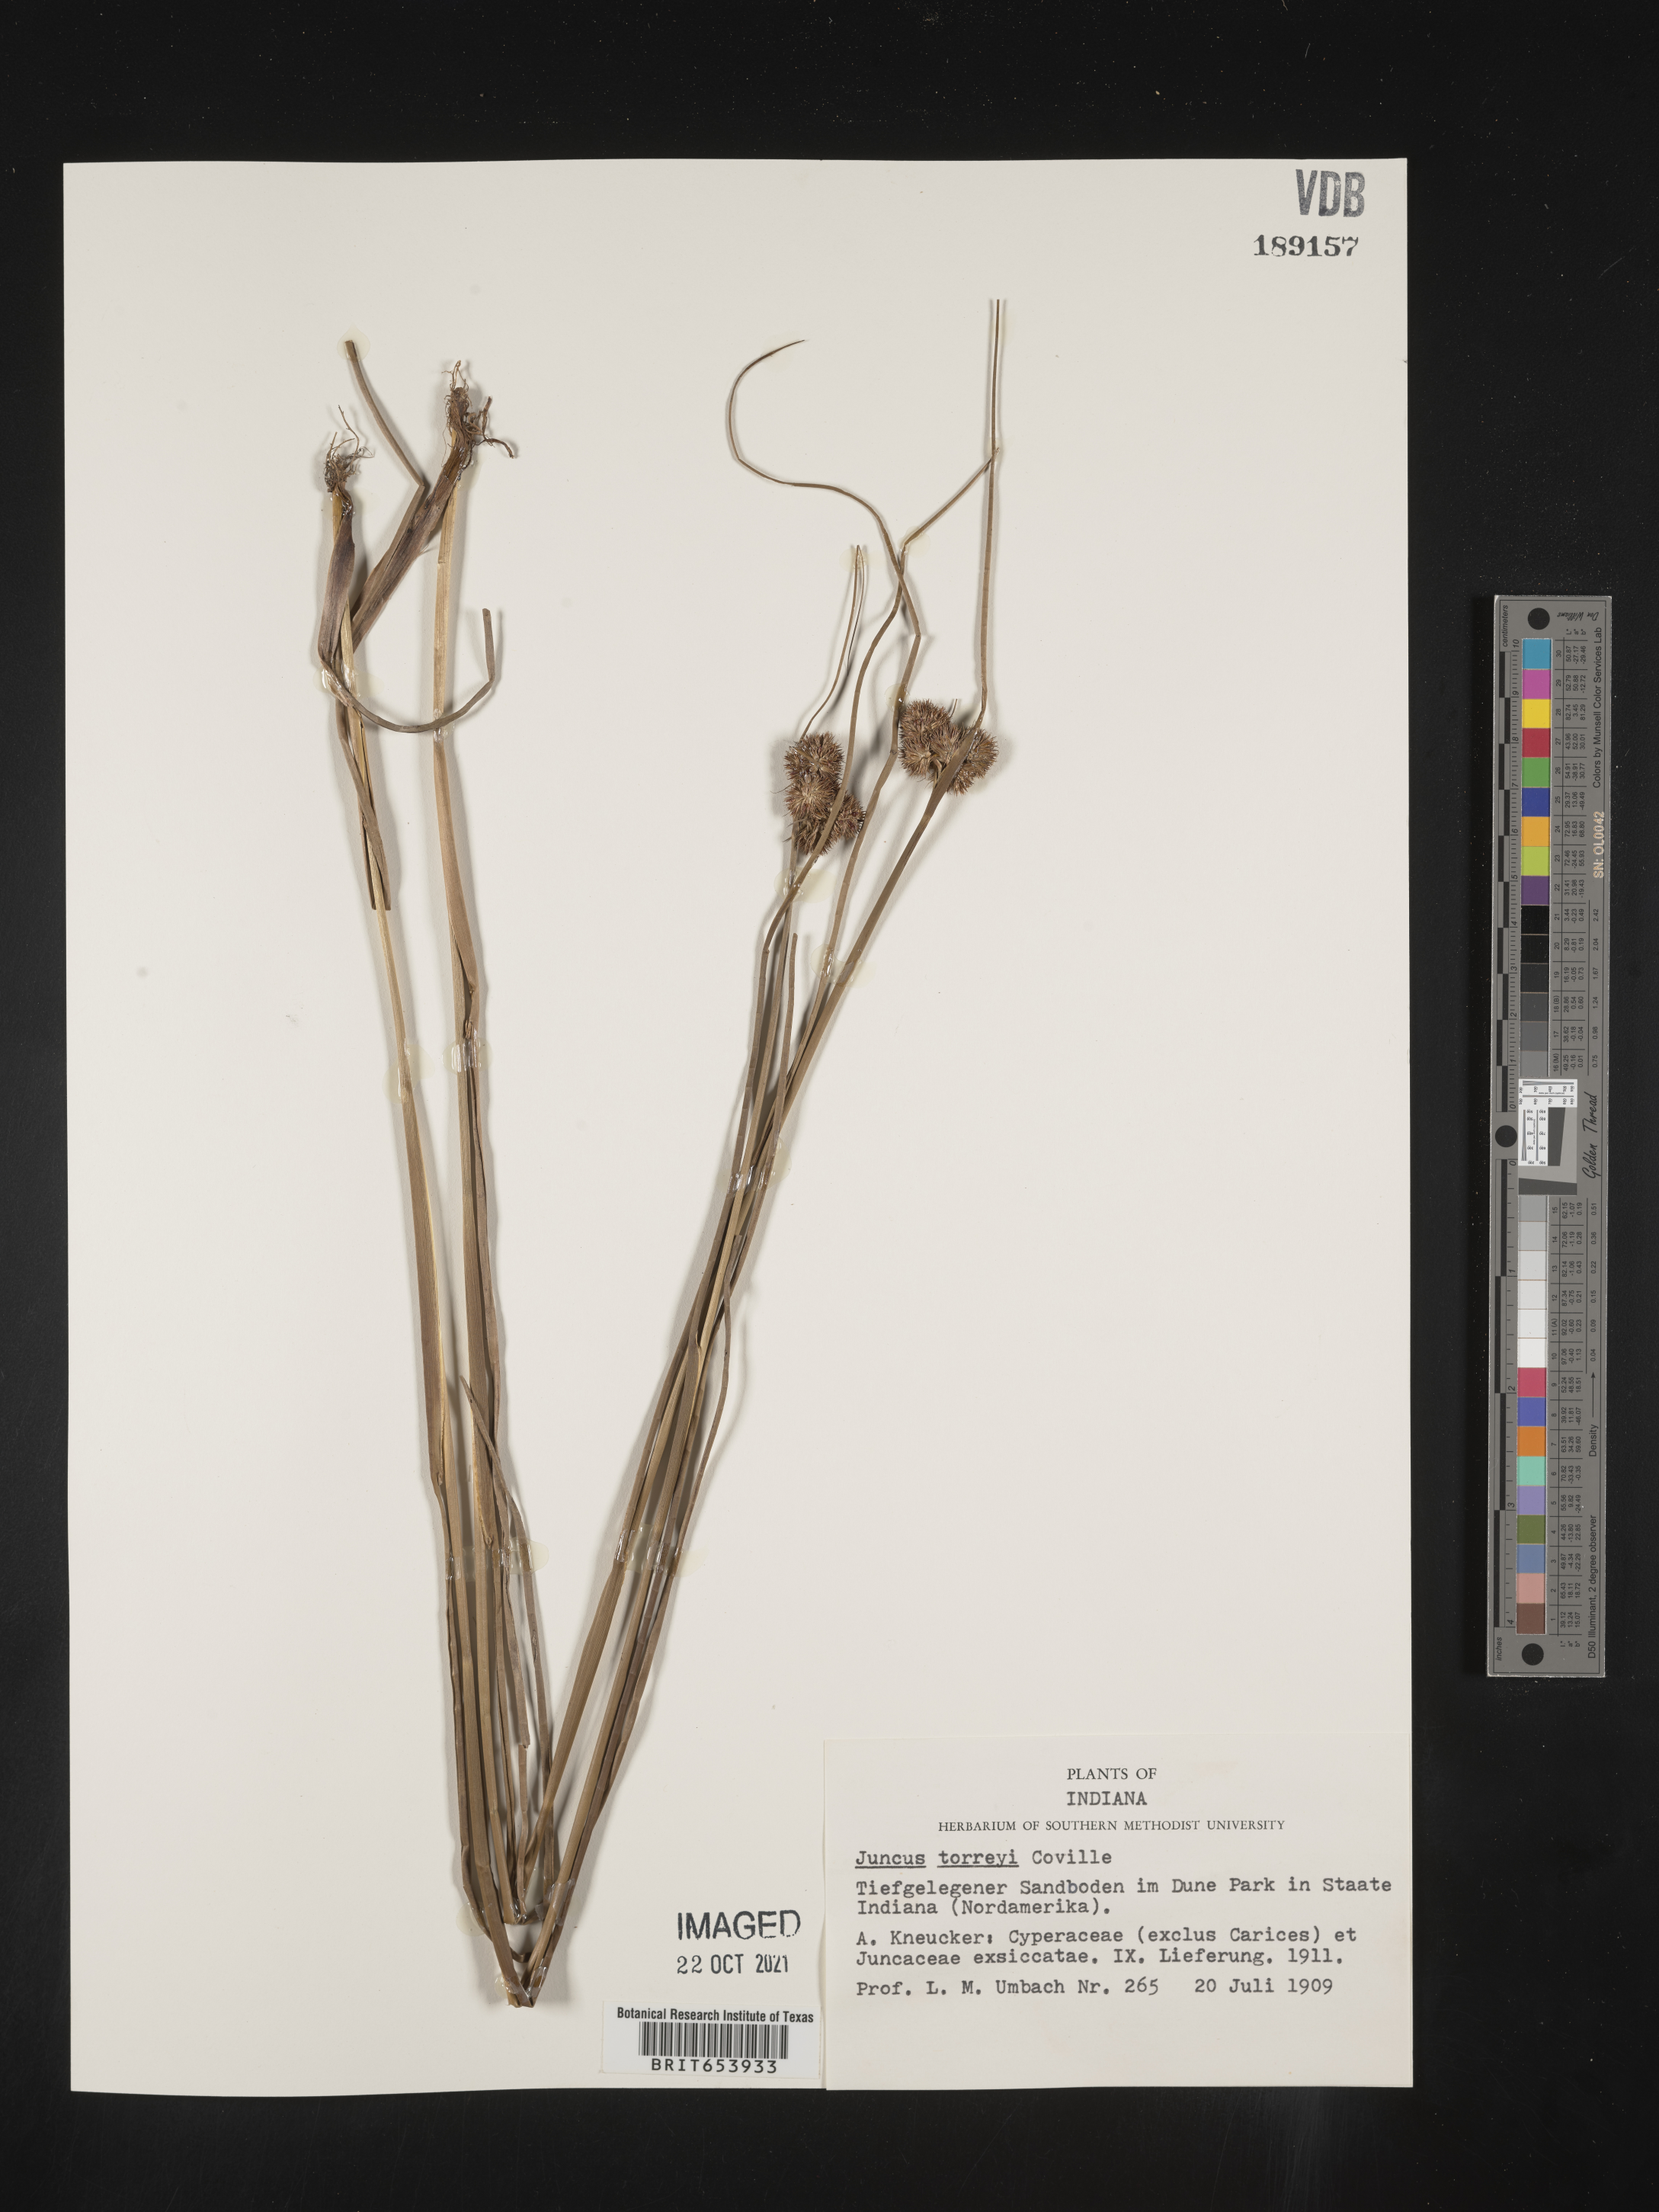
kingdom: Plantae
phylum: Tracheophyta
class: Liliopsida
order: Poales
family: Juncaceae
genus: Juncus
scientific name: Juncus torreyi
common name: Torrey's rush
